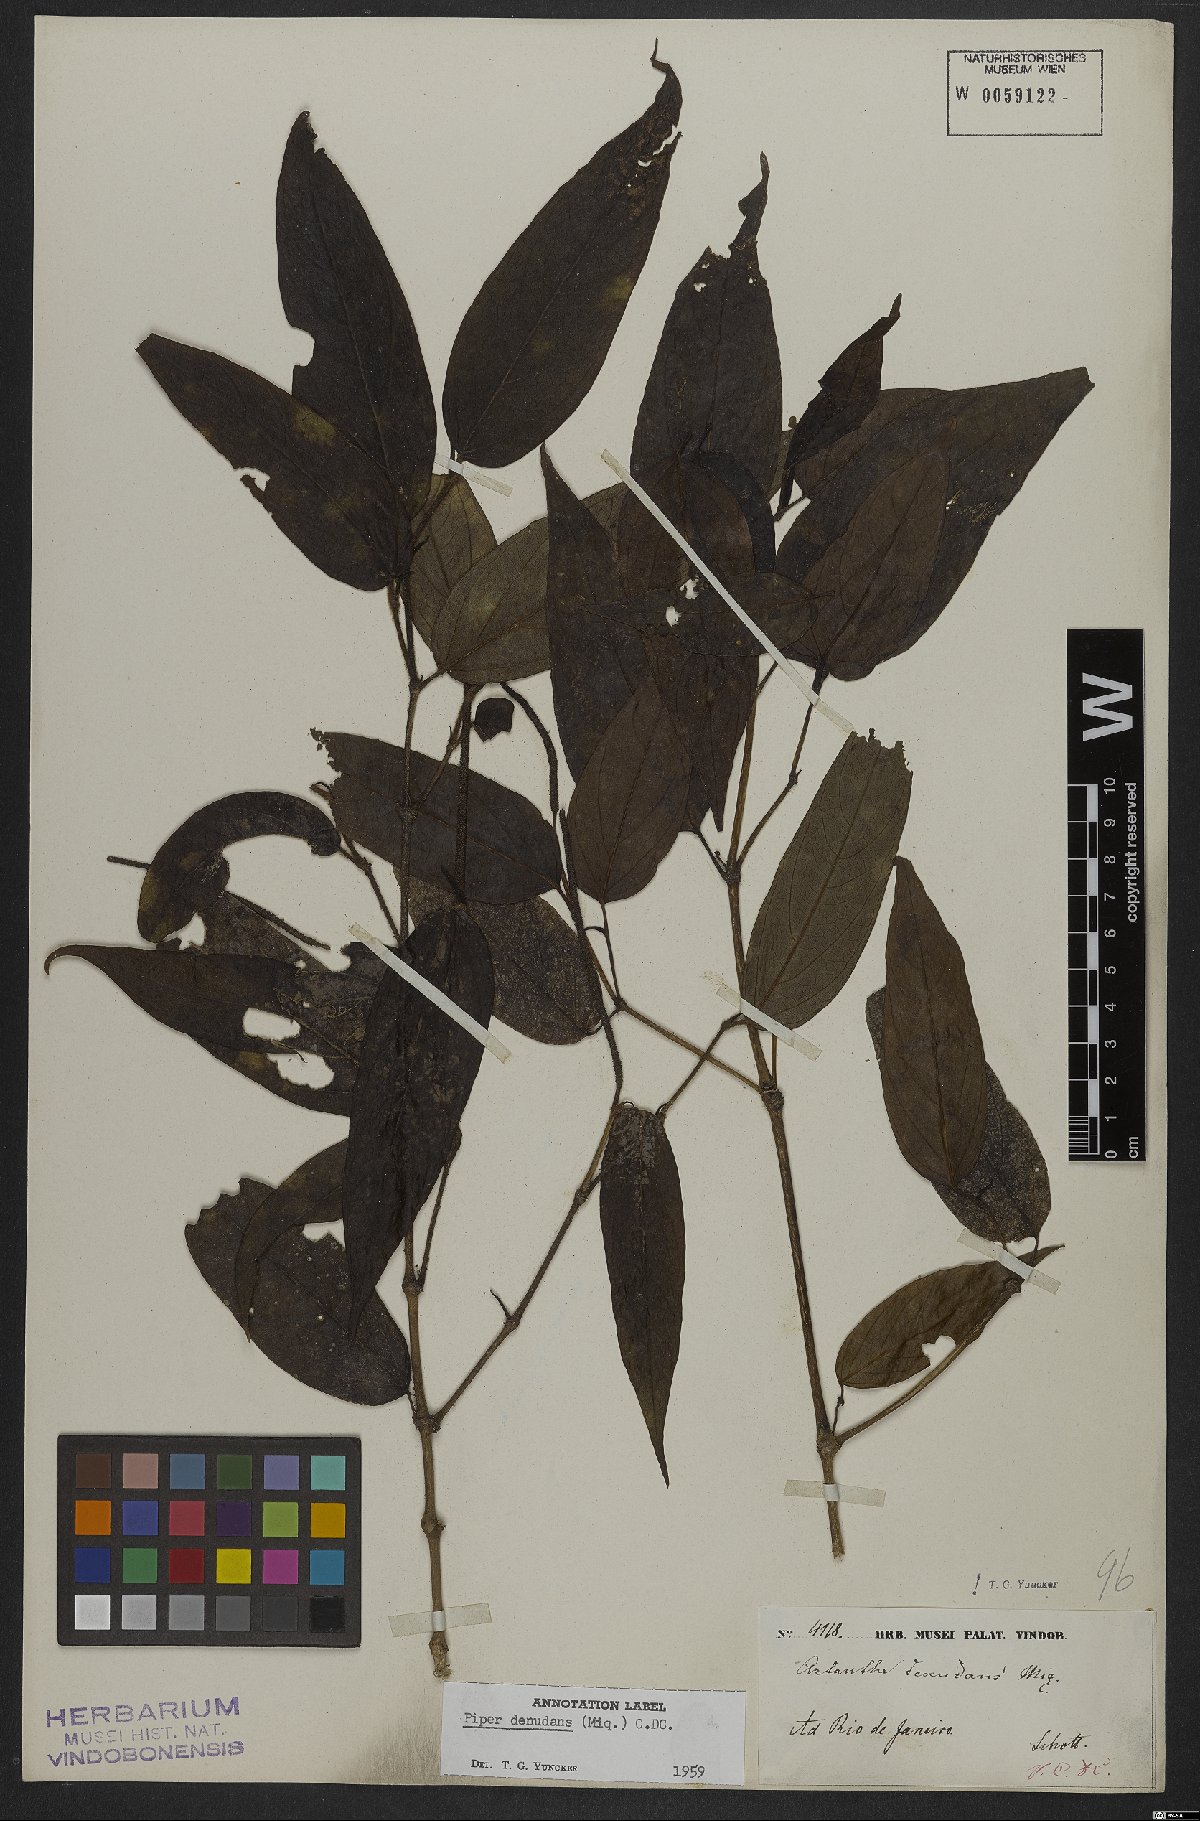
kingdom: Plantae
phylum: Tracheophyta
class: Magnoliopsida
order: Piperales
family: Piperaceae
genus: Piper
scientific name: Piper lepturum
